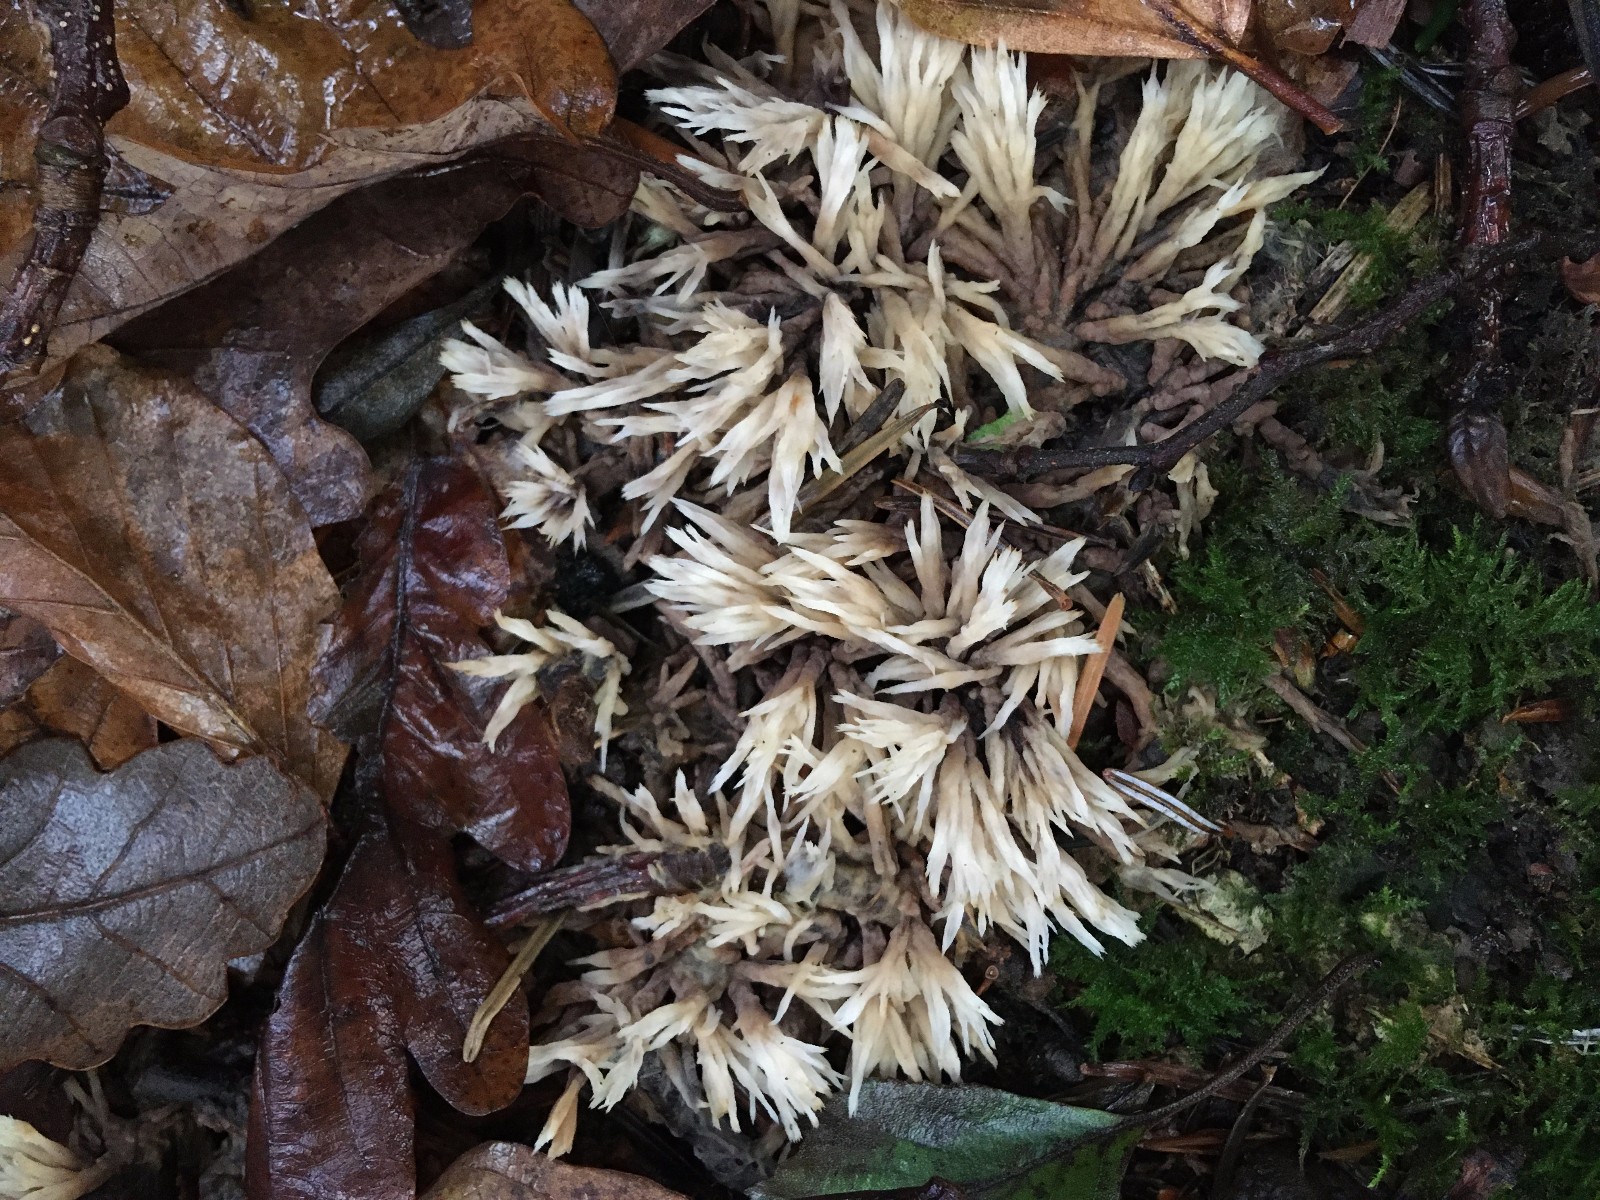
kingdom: Fungi
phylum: Basidiomycota
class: Agaricomycetes
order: Thelephorales
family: Thelephoraceae
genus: Thelephora
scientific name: Thelephora penicillata
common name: fladtrådt frynsesvamp
